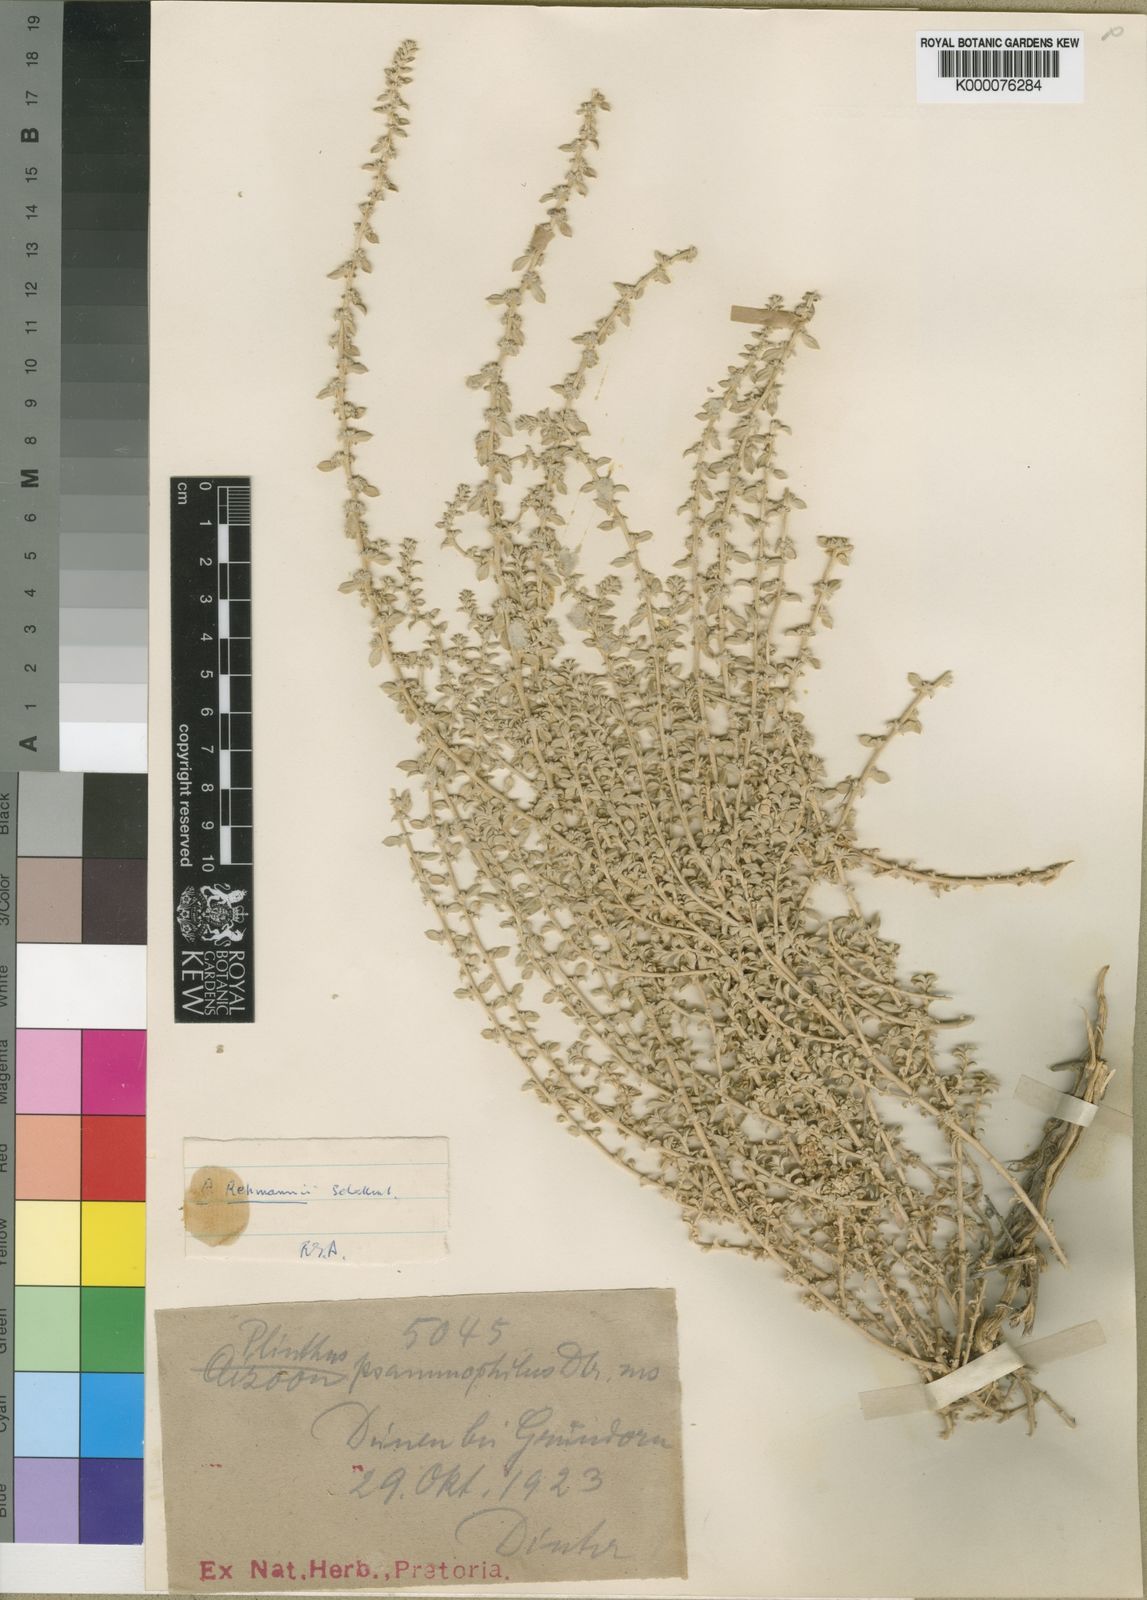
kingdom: Plantae
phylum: Tracheophyta
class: Magnoliopsida
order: Caryophyllales
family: Aizoaceae
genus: Aizoon
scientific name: Aizoon rehmannii
